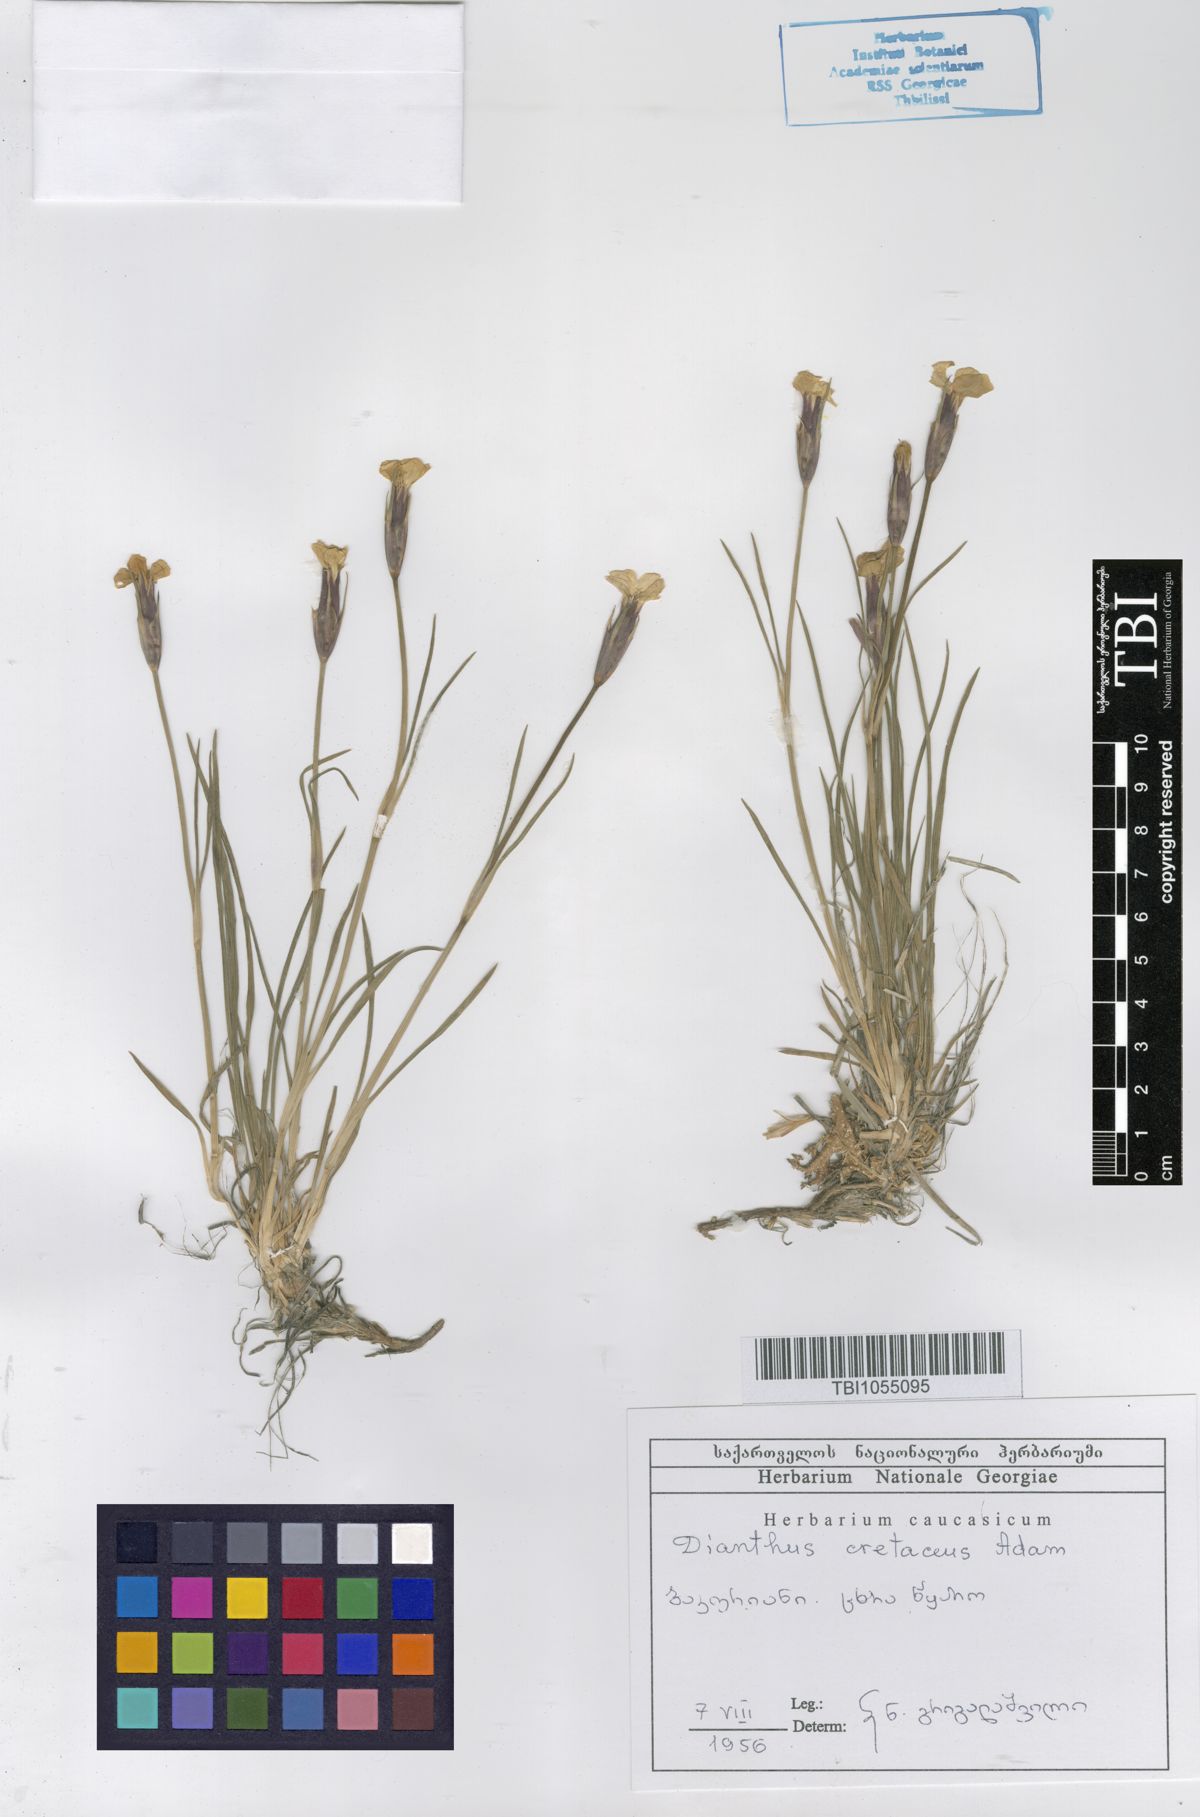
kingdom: Plantae
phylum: Tracheophyta
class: Magnoliopsida
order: Caryophyllales
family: Caryophyllaceae
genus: Dianthus
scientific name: Dianthus cretaceus
